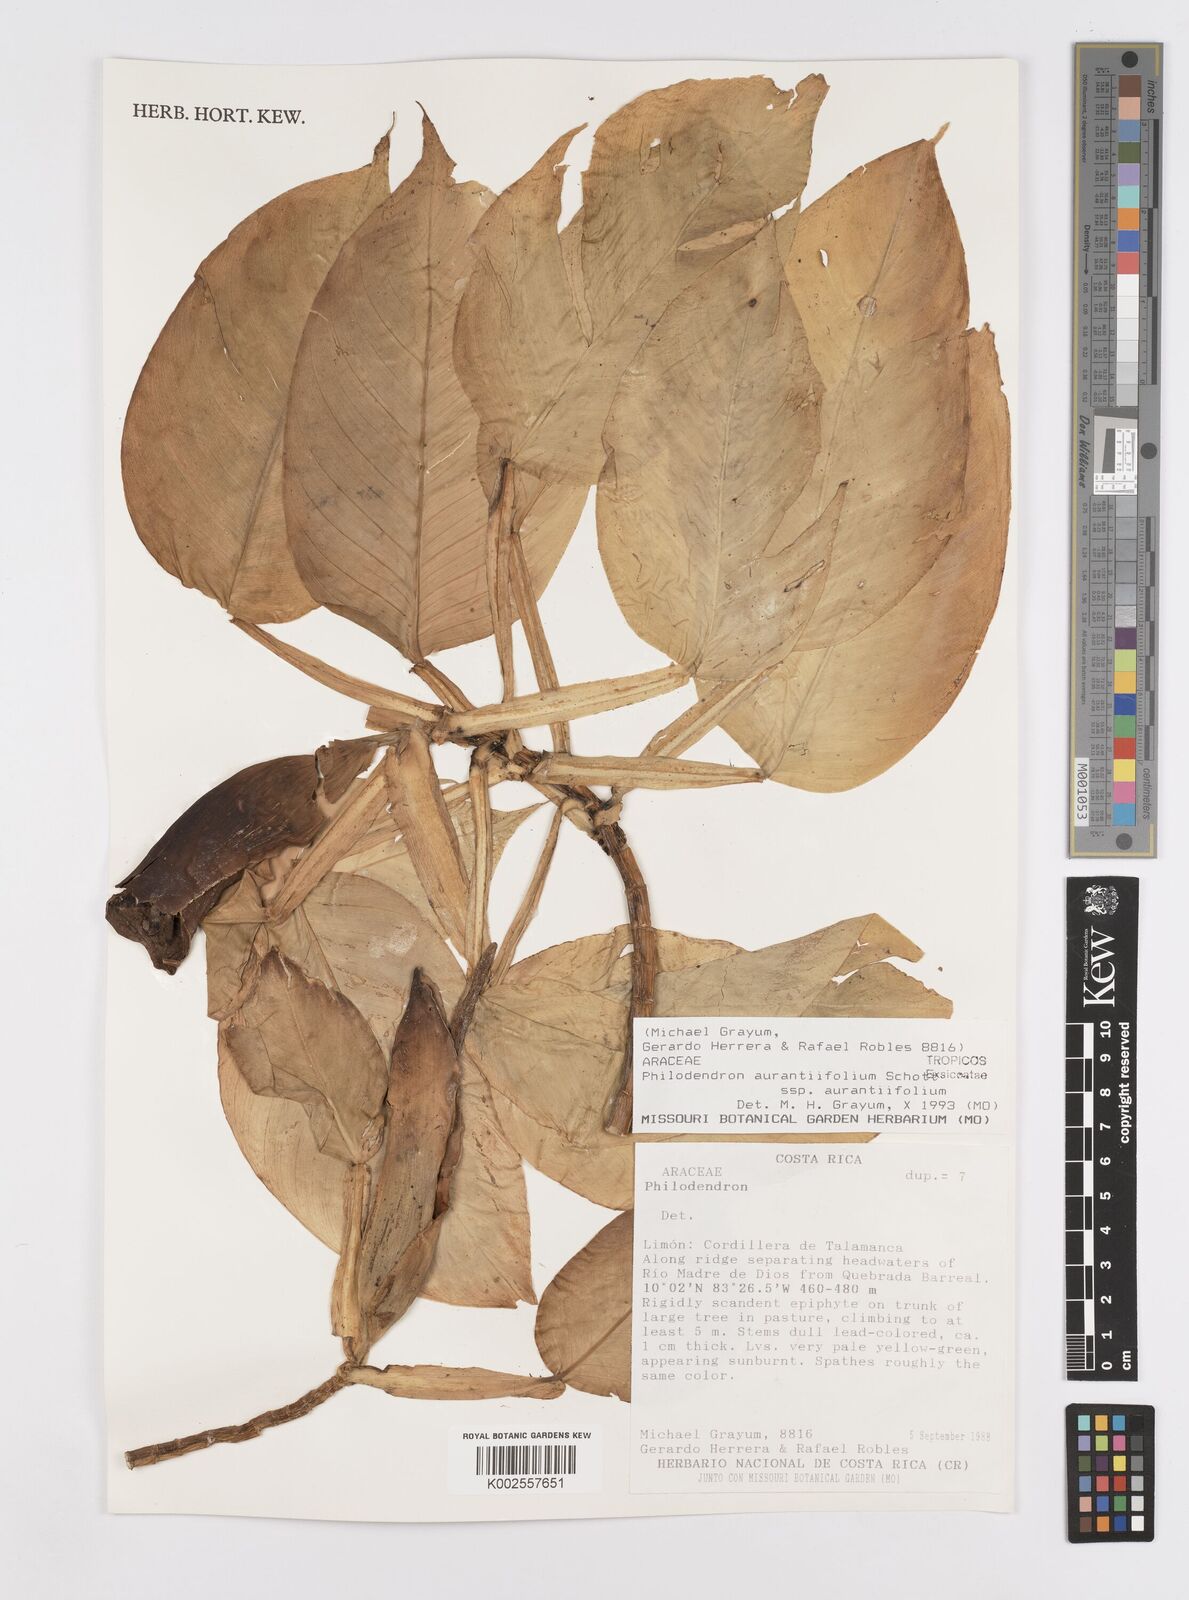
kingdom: Plantae
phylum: Tracheophyta
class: Liliopsida
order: Alismatales
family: Araceae
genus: Philodendron
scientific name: Philodendron aurantiifolium
